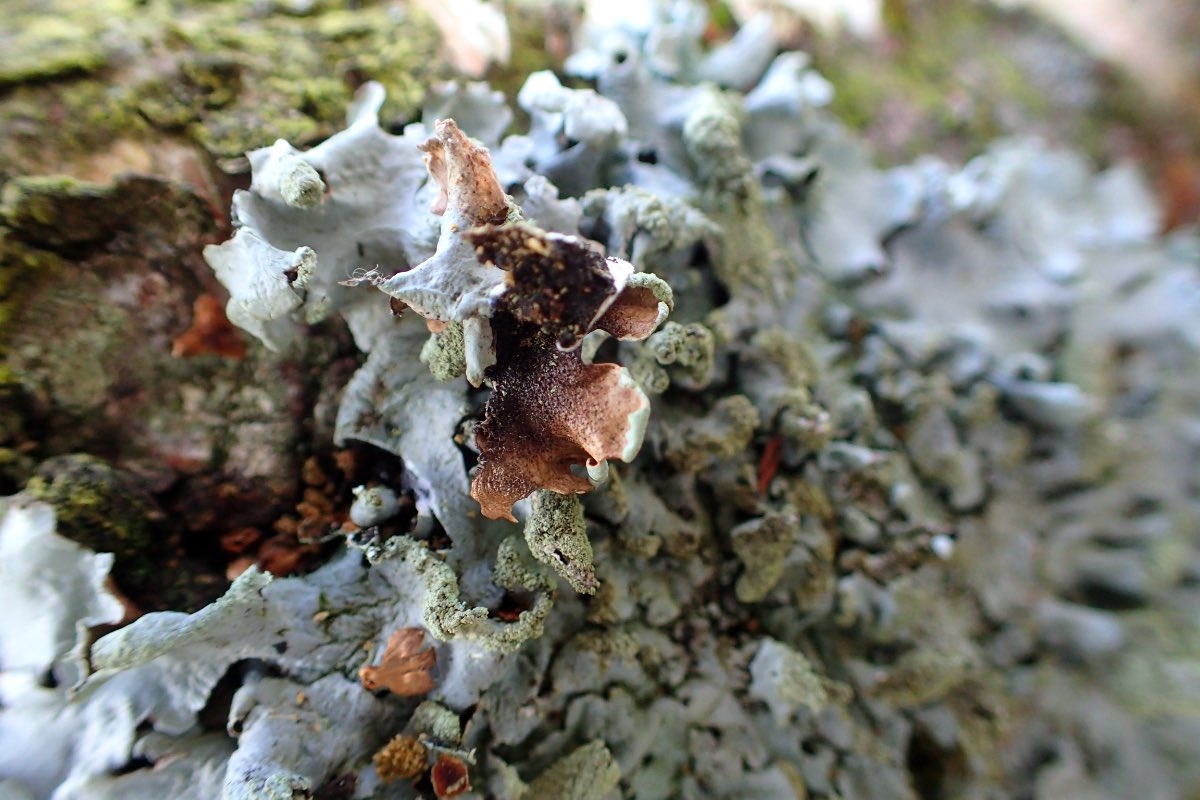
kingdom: Fungi
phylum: Ascomycota
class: Lecanoromycetes
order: Lecanorales
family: Parmeliaceae
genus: Hypotrachyna
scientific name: Hypotrachyna revoluta
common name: bleggrå skållav
